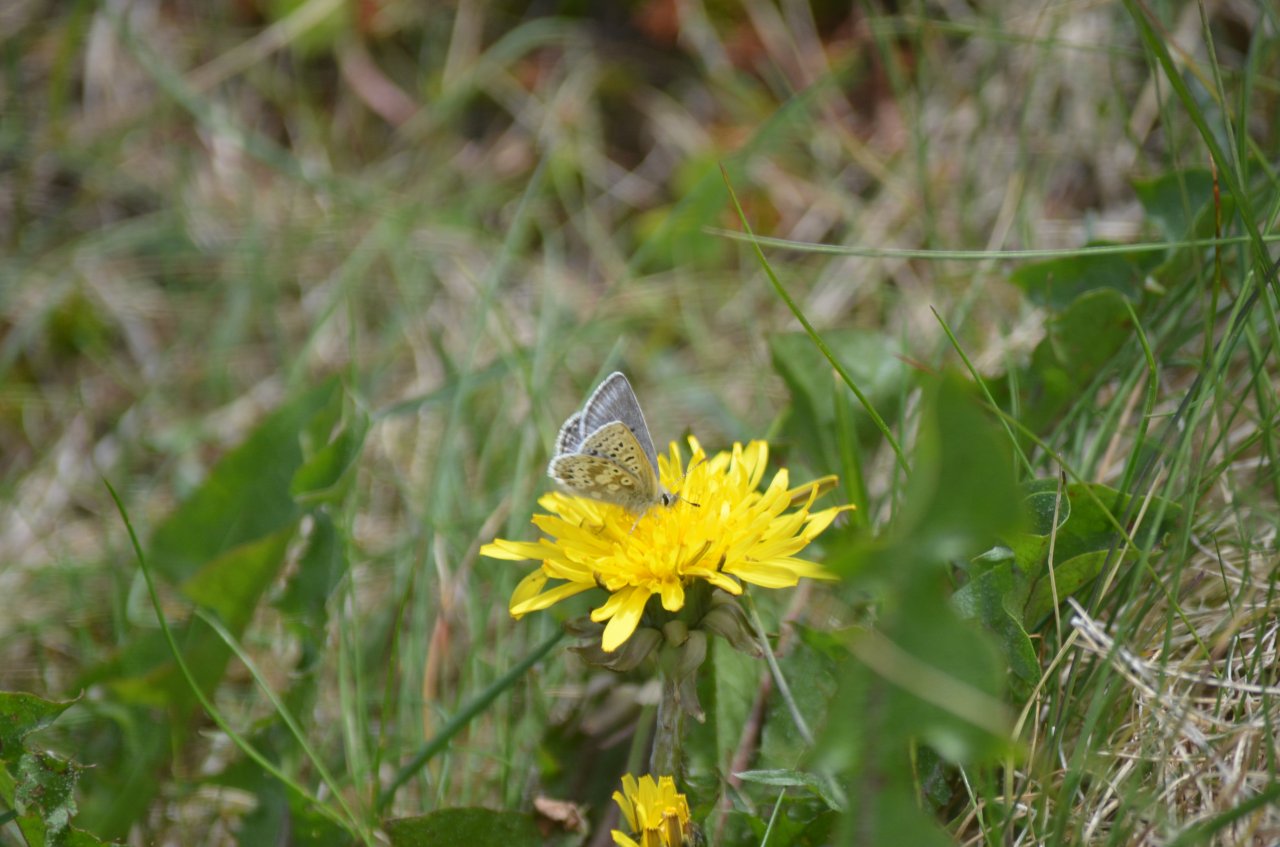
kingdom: Animalia
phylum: Arthropoda
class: Insecta
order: Lepidoptera
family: Lycaenidae
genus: Agriades
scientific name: Agriades glandon
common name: Arctic Blue
